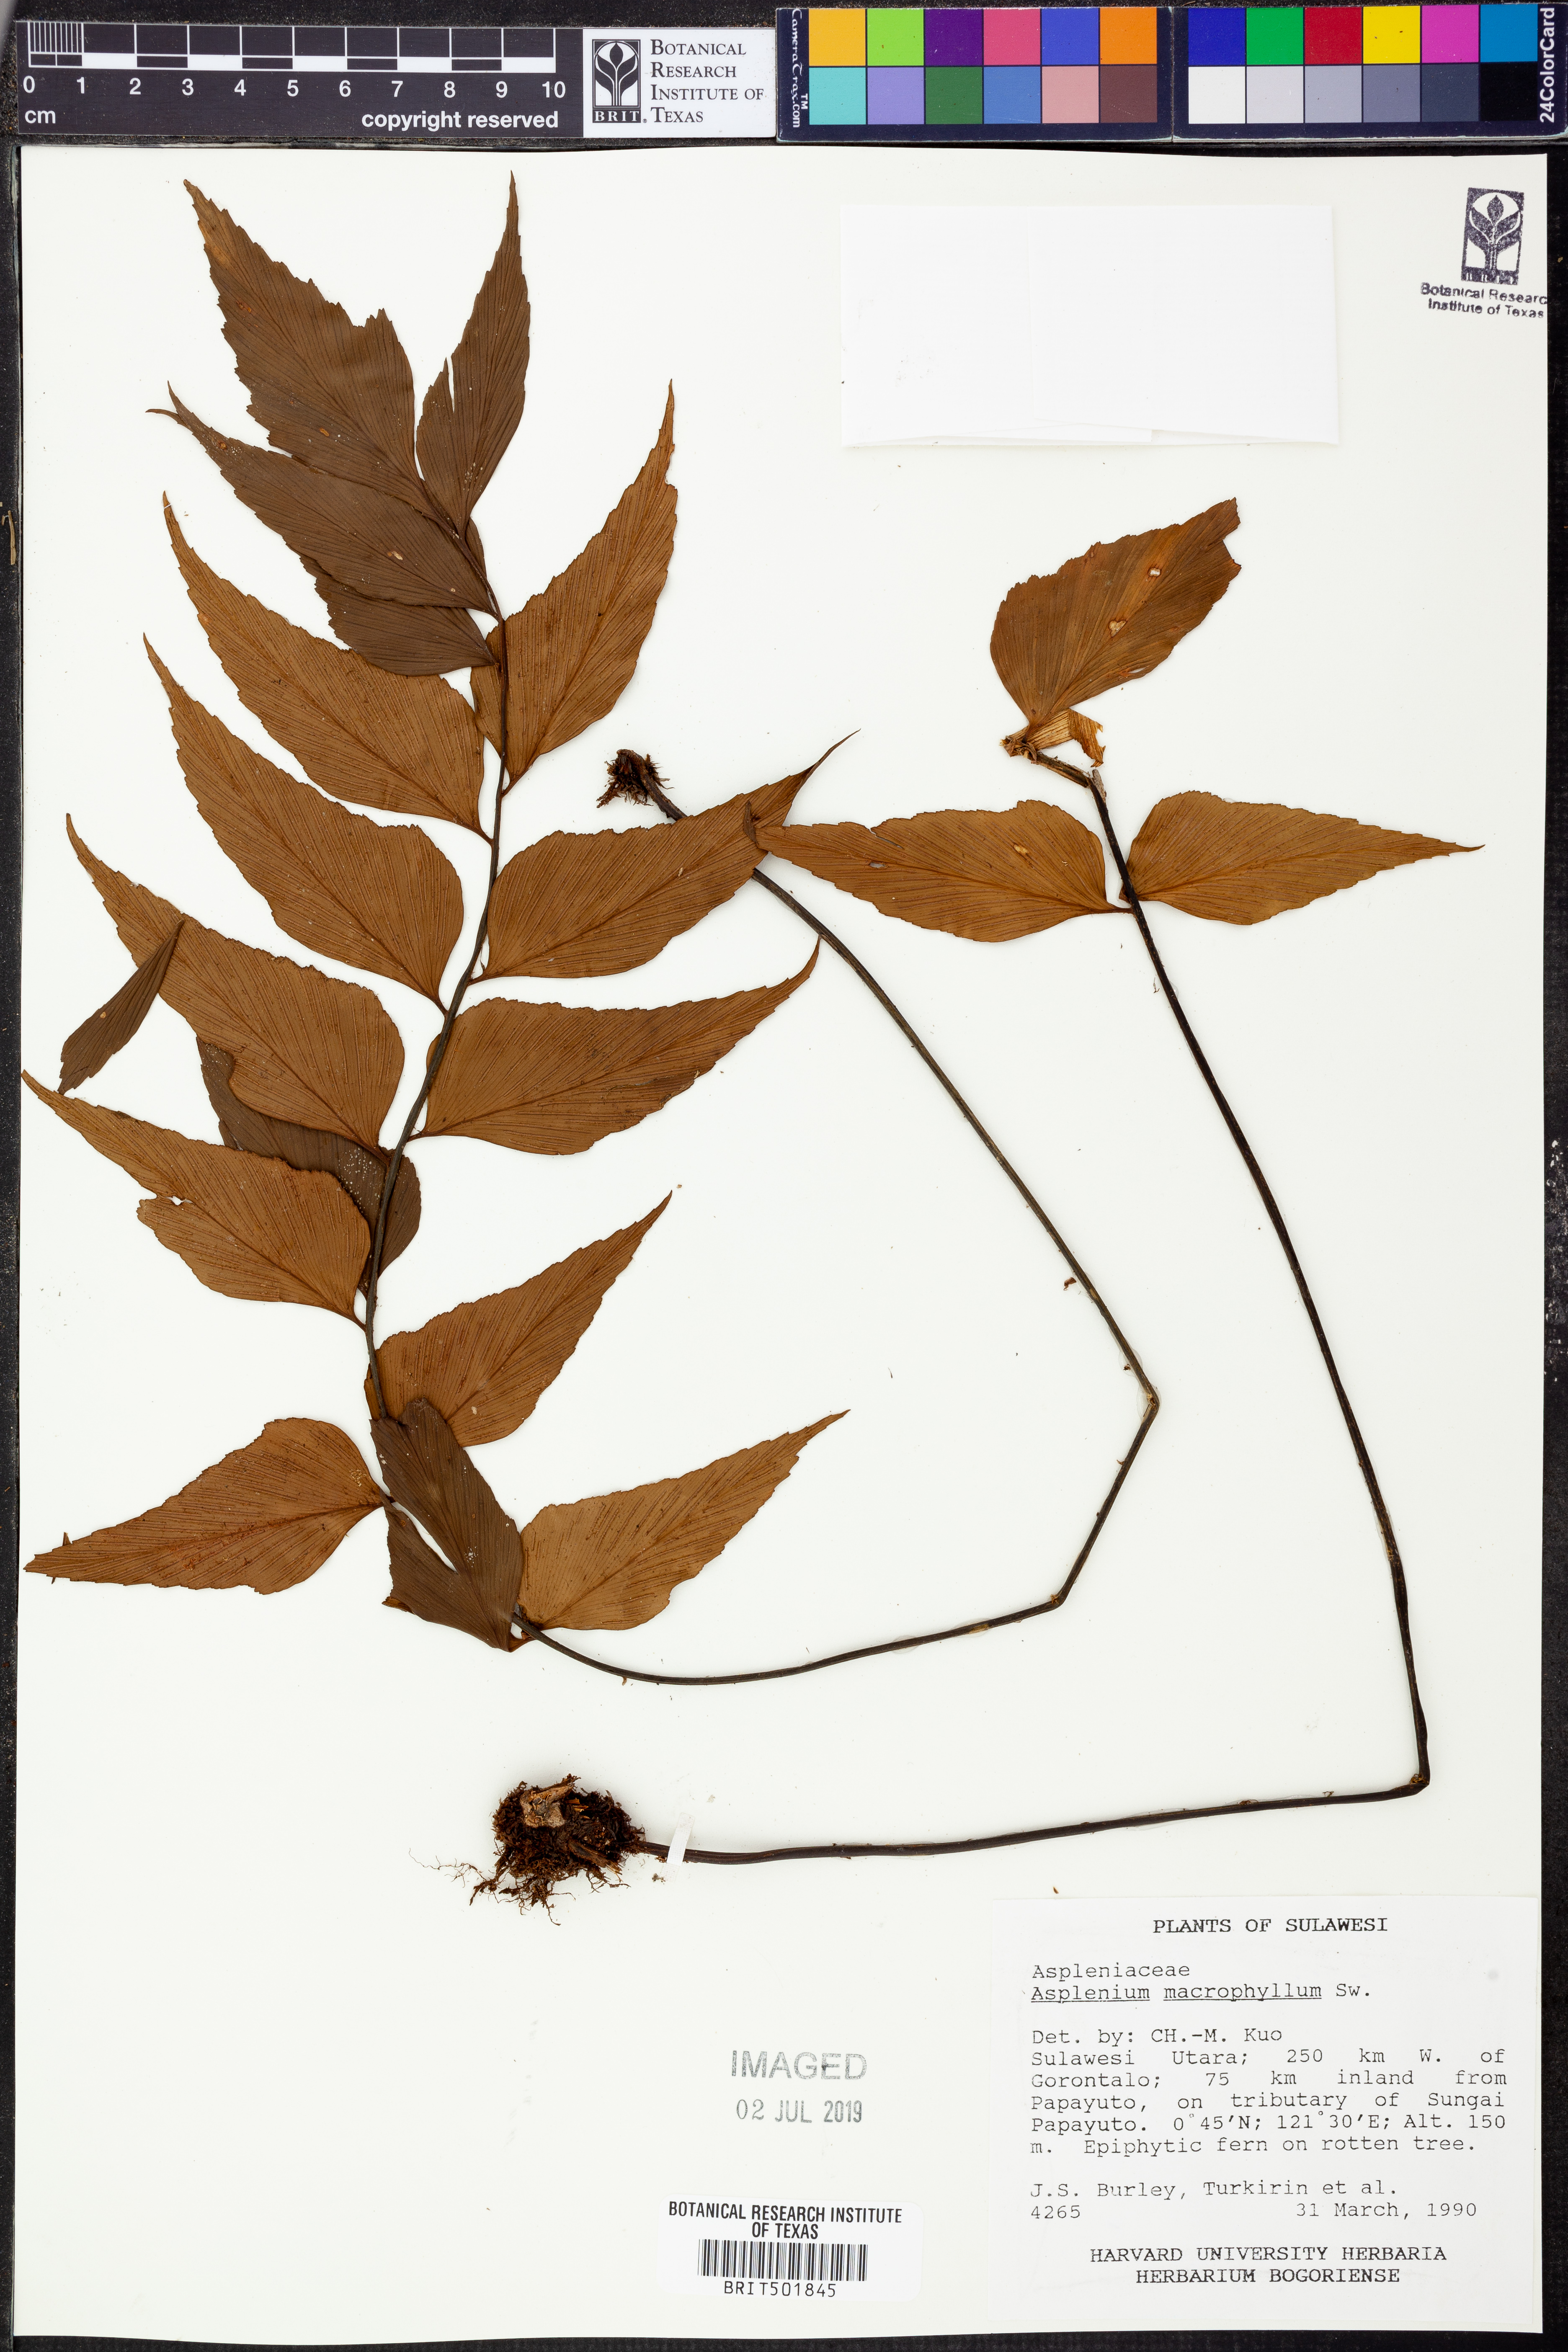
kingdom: Plantae
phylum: Tracheophyta
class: Polypodiopsida
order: Polypodiales
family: Aspleniaceae
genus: Asplenium
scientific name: Asplenium macrophyllum
